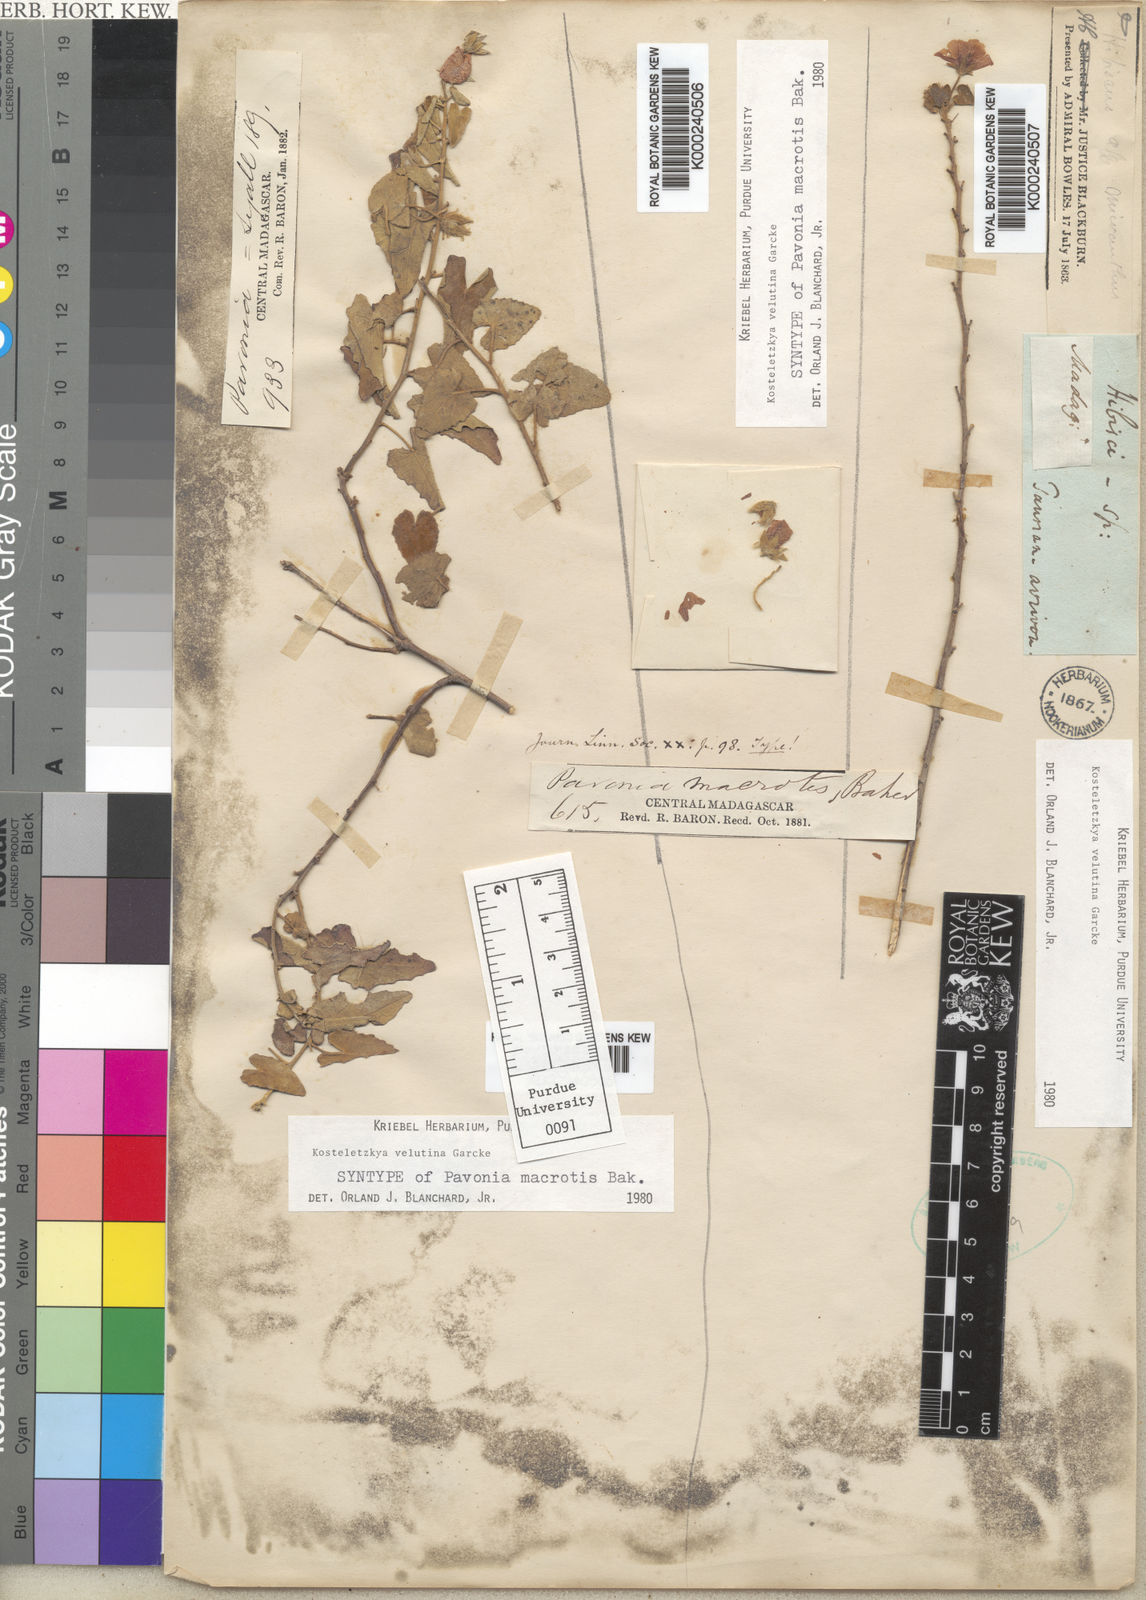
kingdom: Plantae
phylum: Tracheophyta
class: Magnoliopsida
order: Malvales
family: Malvaceae
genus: Perrierophytum
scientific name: Perrierophytum velutinum
